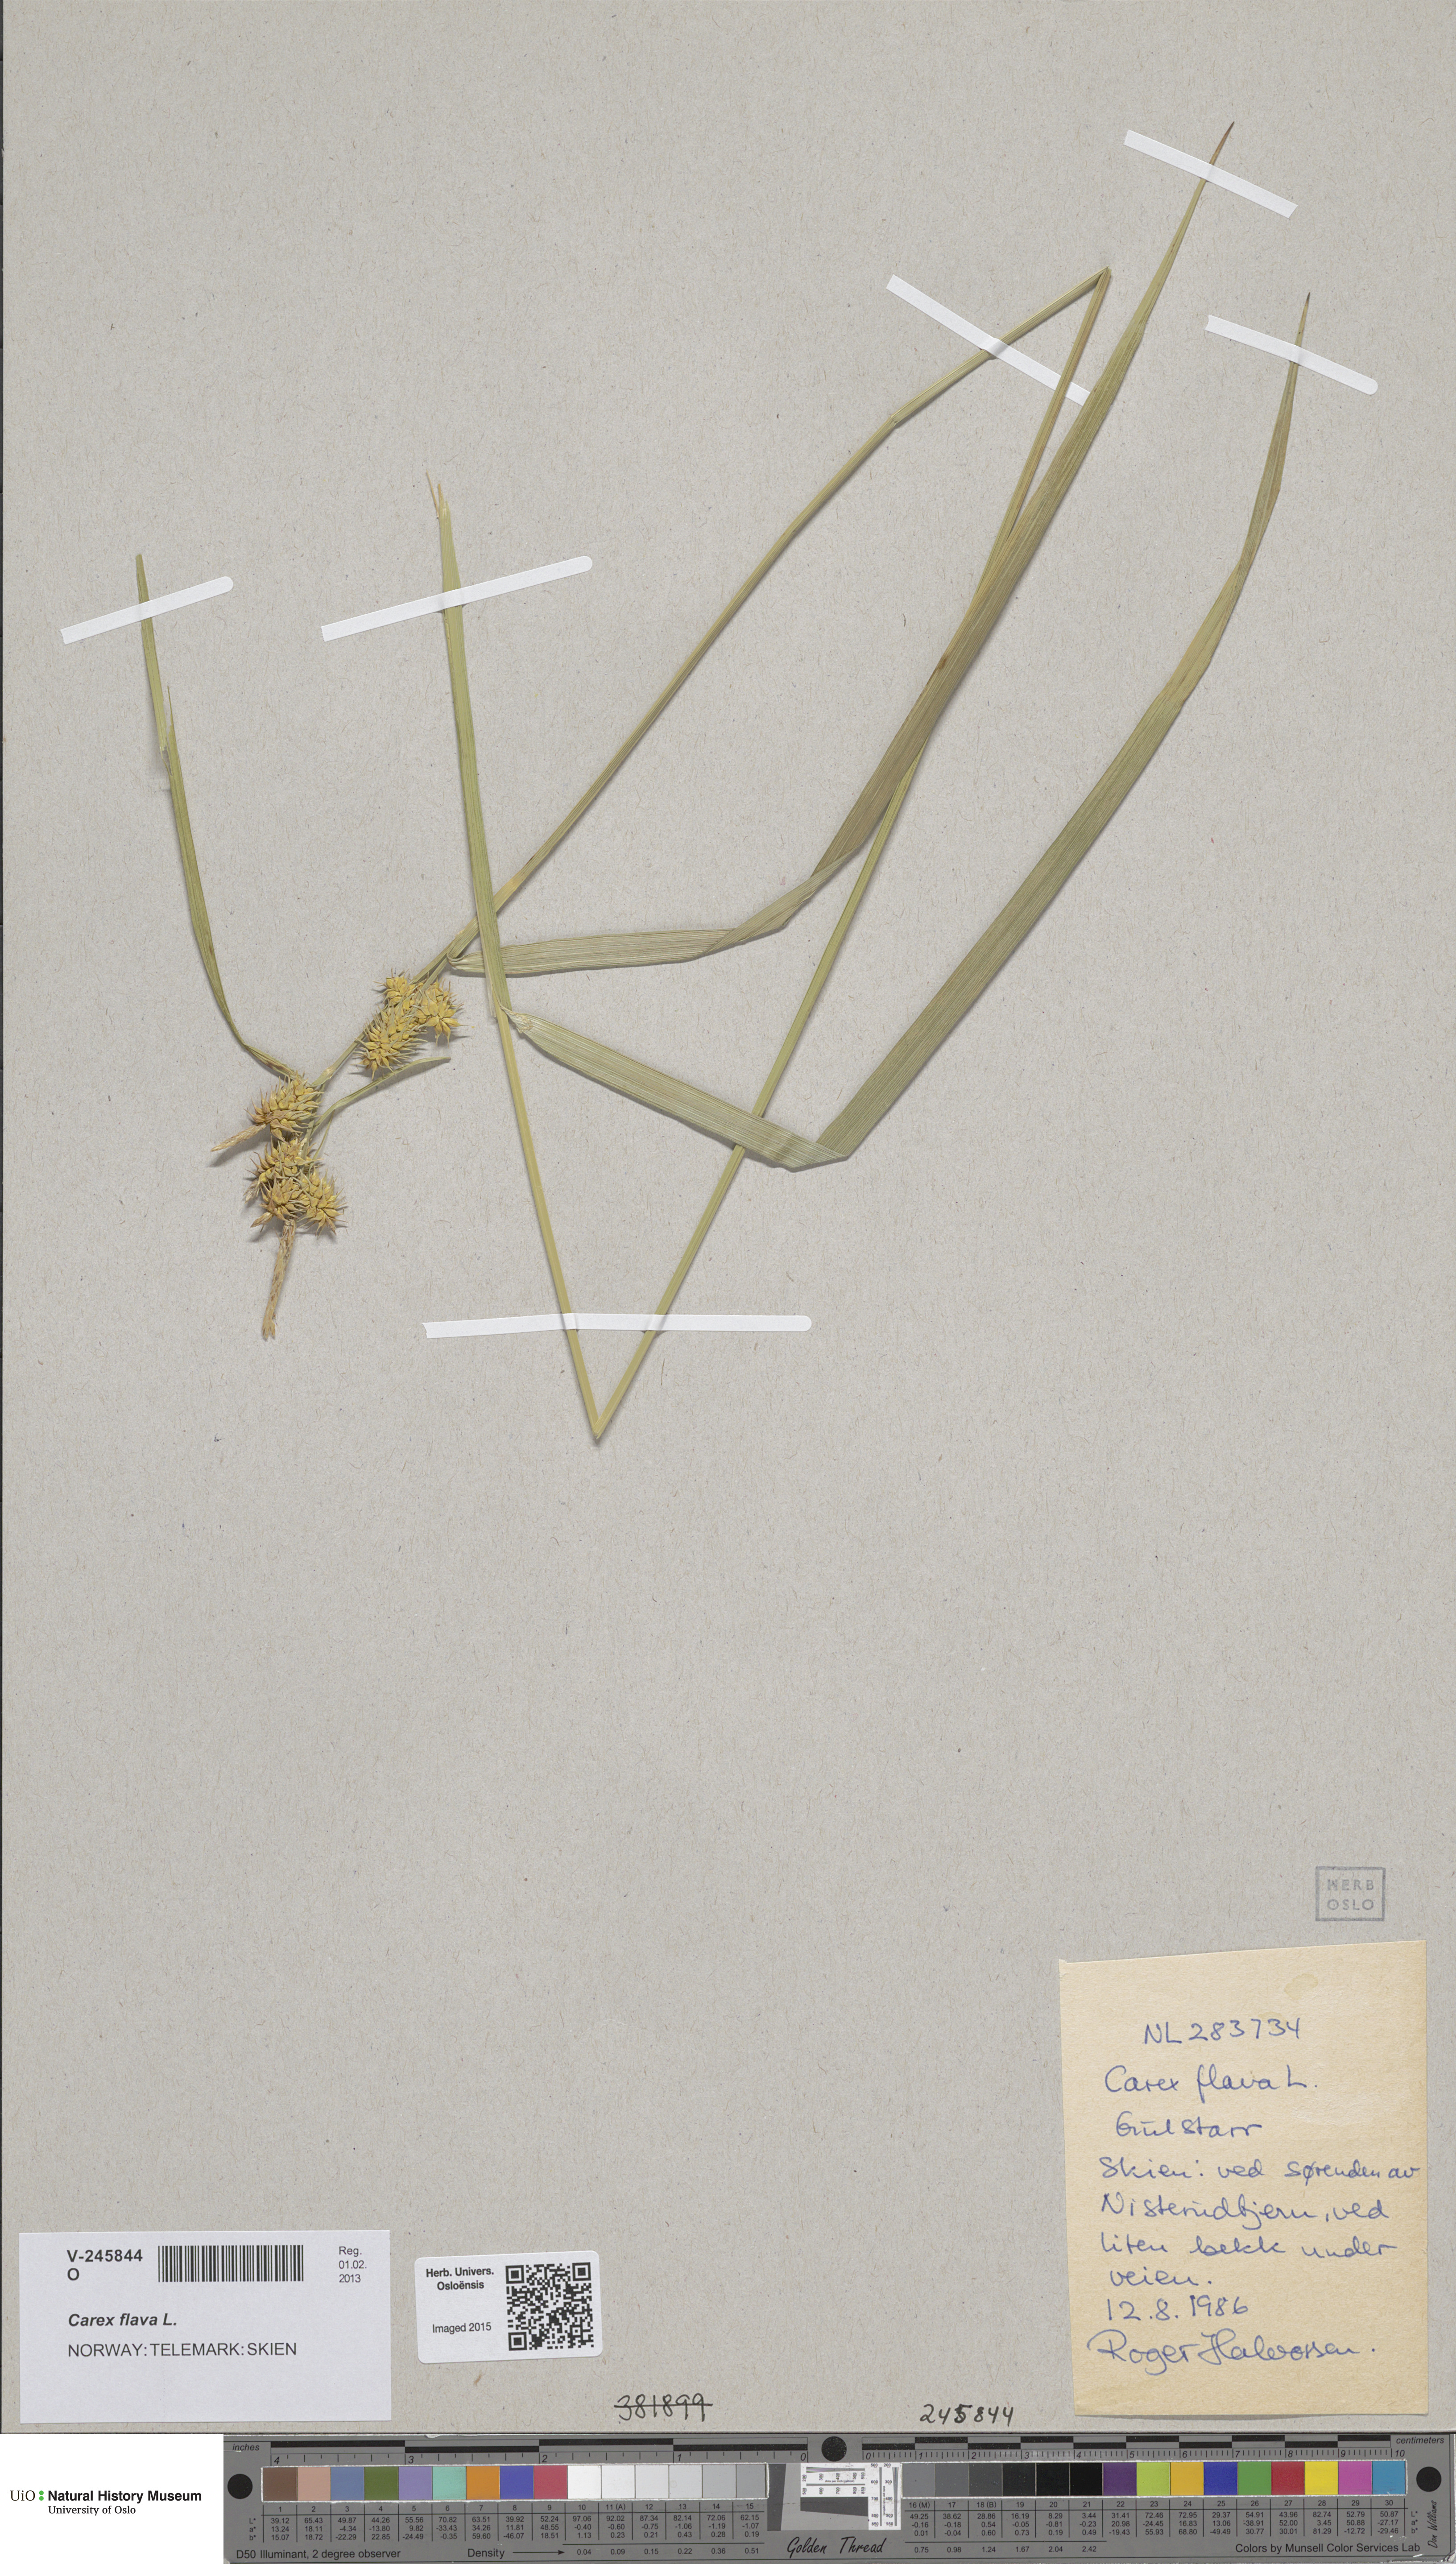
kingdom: Plantae
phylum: Tracheophyta
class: Liliopsida
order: Poales
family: Cyperaceae
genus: Carex
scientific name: Carex flava
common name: Large yellow-sedge
